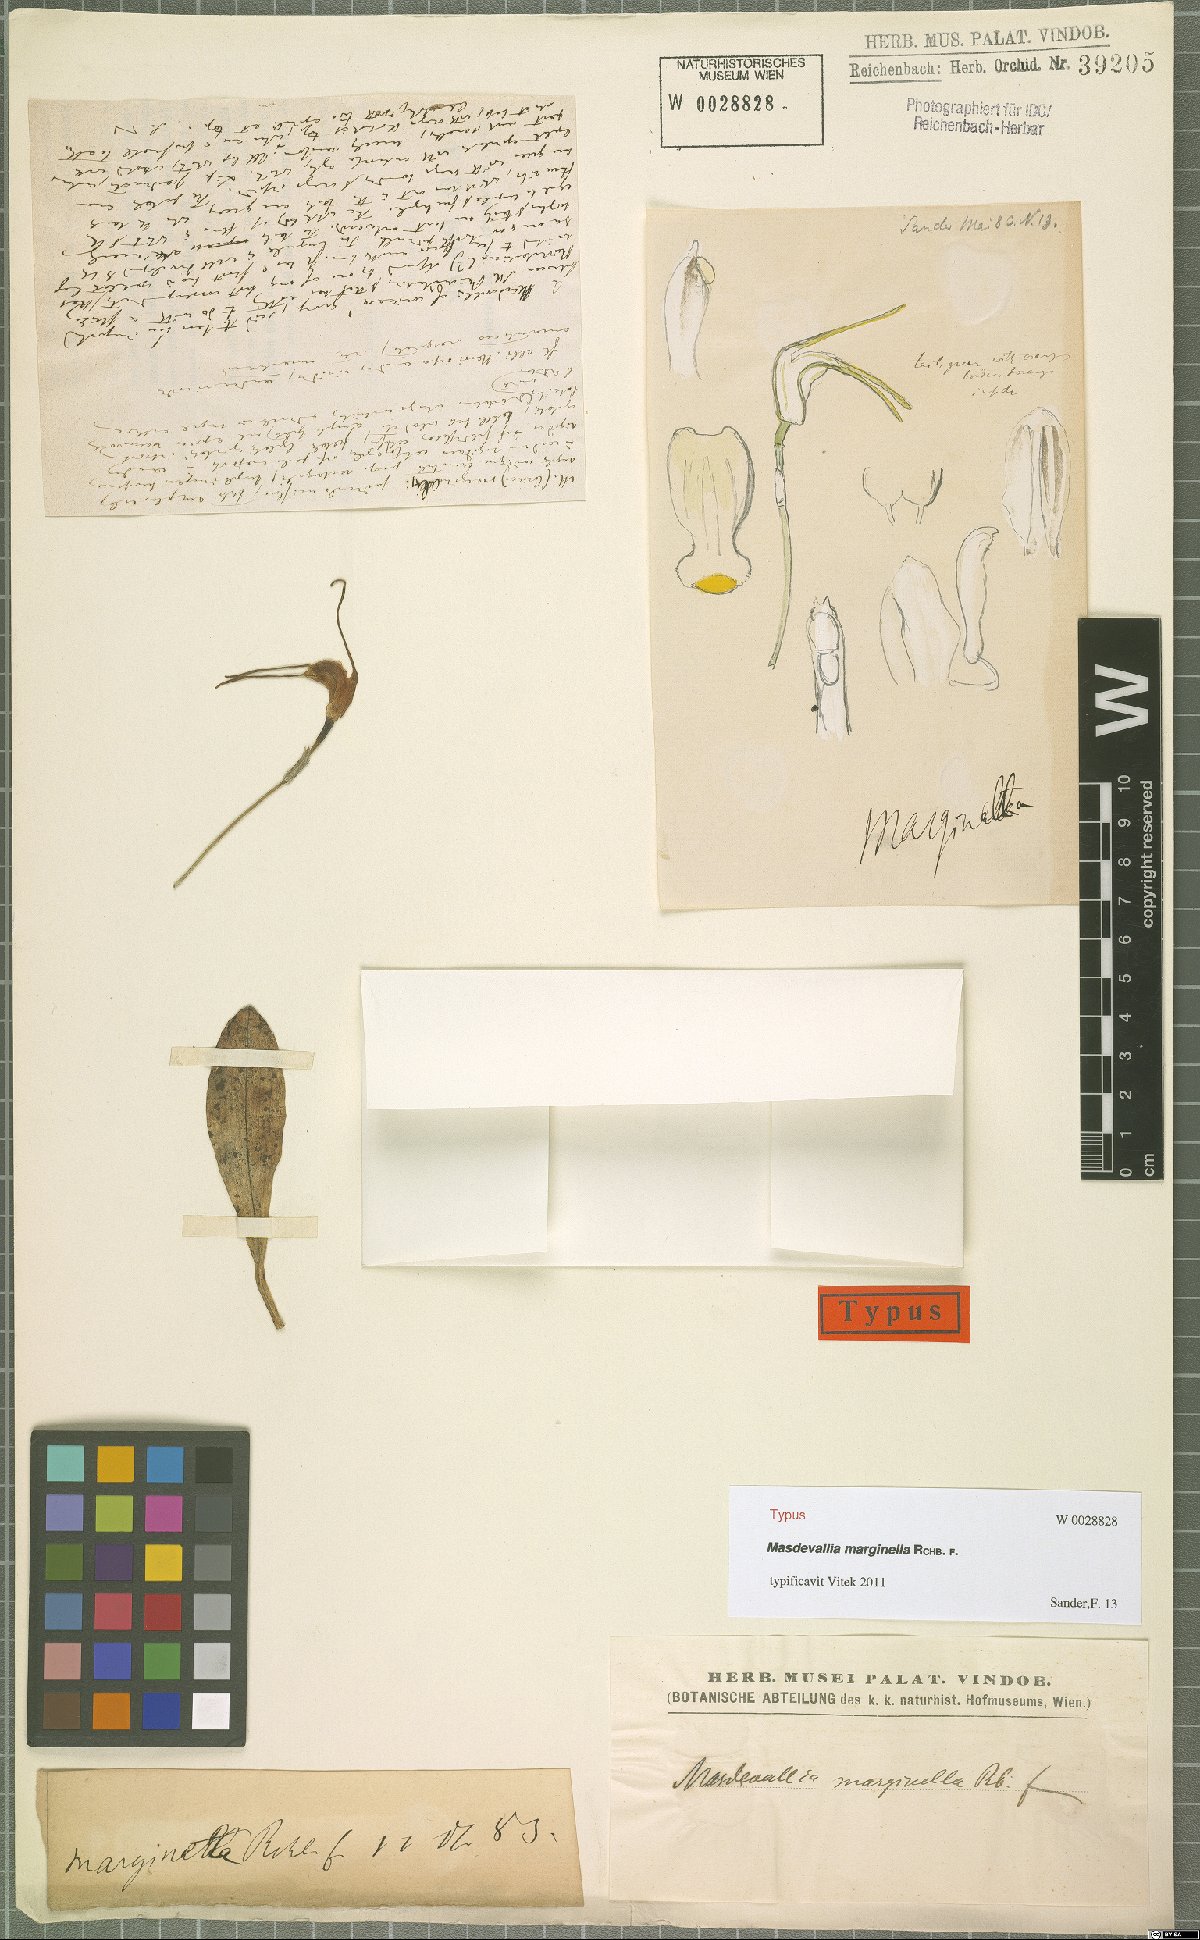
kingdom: Plantae
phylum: Tracheophyta
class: Liliopsida
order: Asparagales
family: Orchidaceae
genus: Masdevallia
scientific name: Masdevallia marginella
